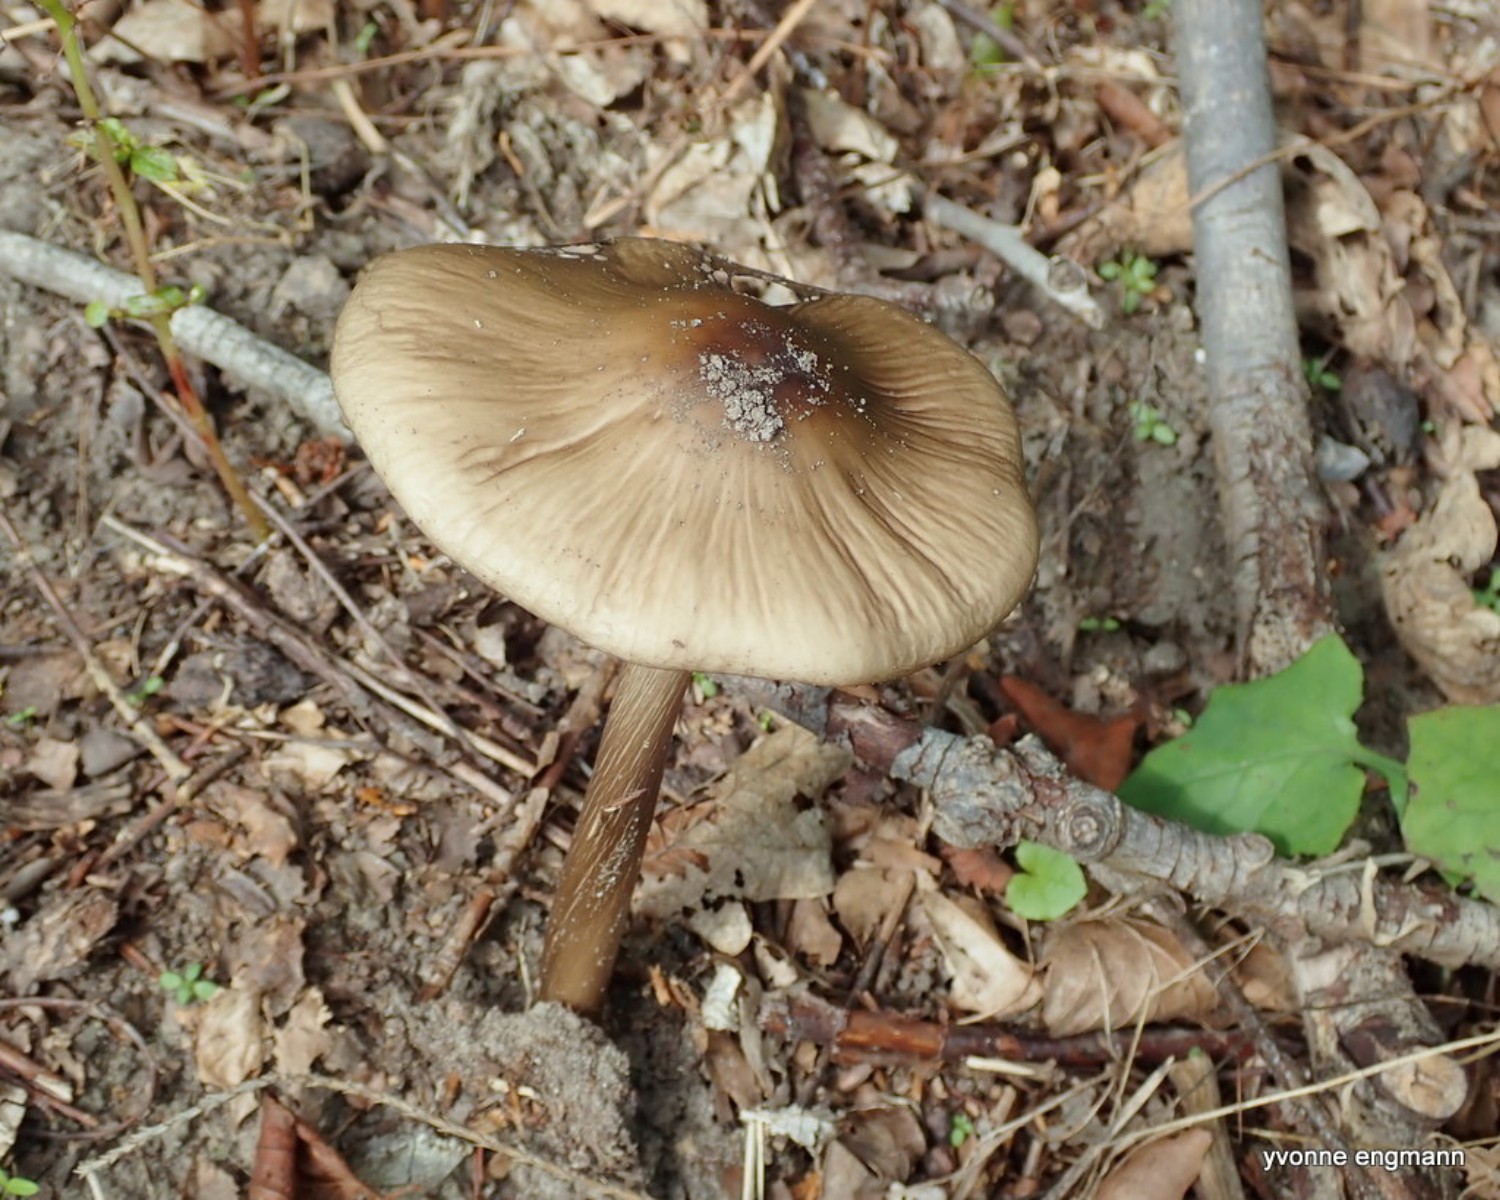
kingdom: Fungi
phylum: Basidiomycota
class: Agaricomycetes
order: Agaricales
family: Physalacriaceae
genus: Hymenopellis
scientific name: Hymenopellis radicata
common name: almindelig pælerodshat
